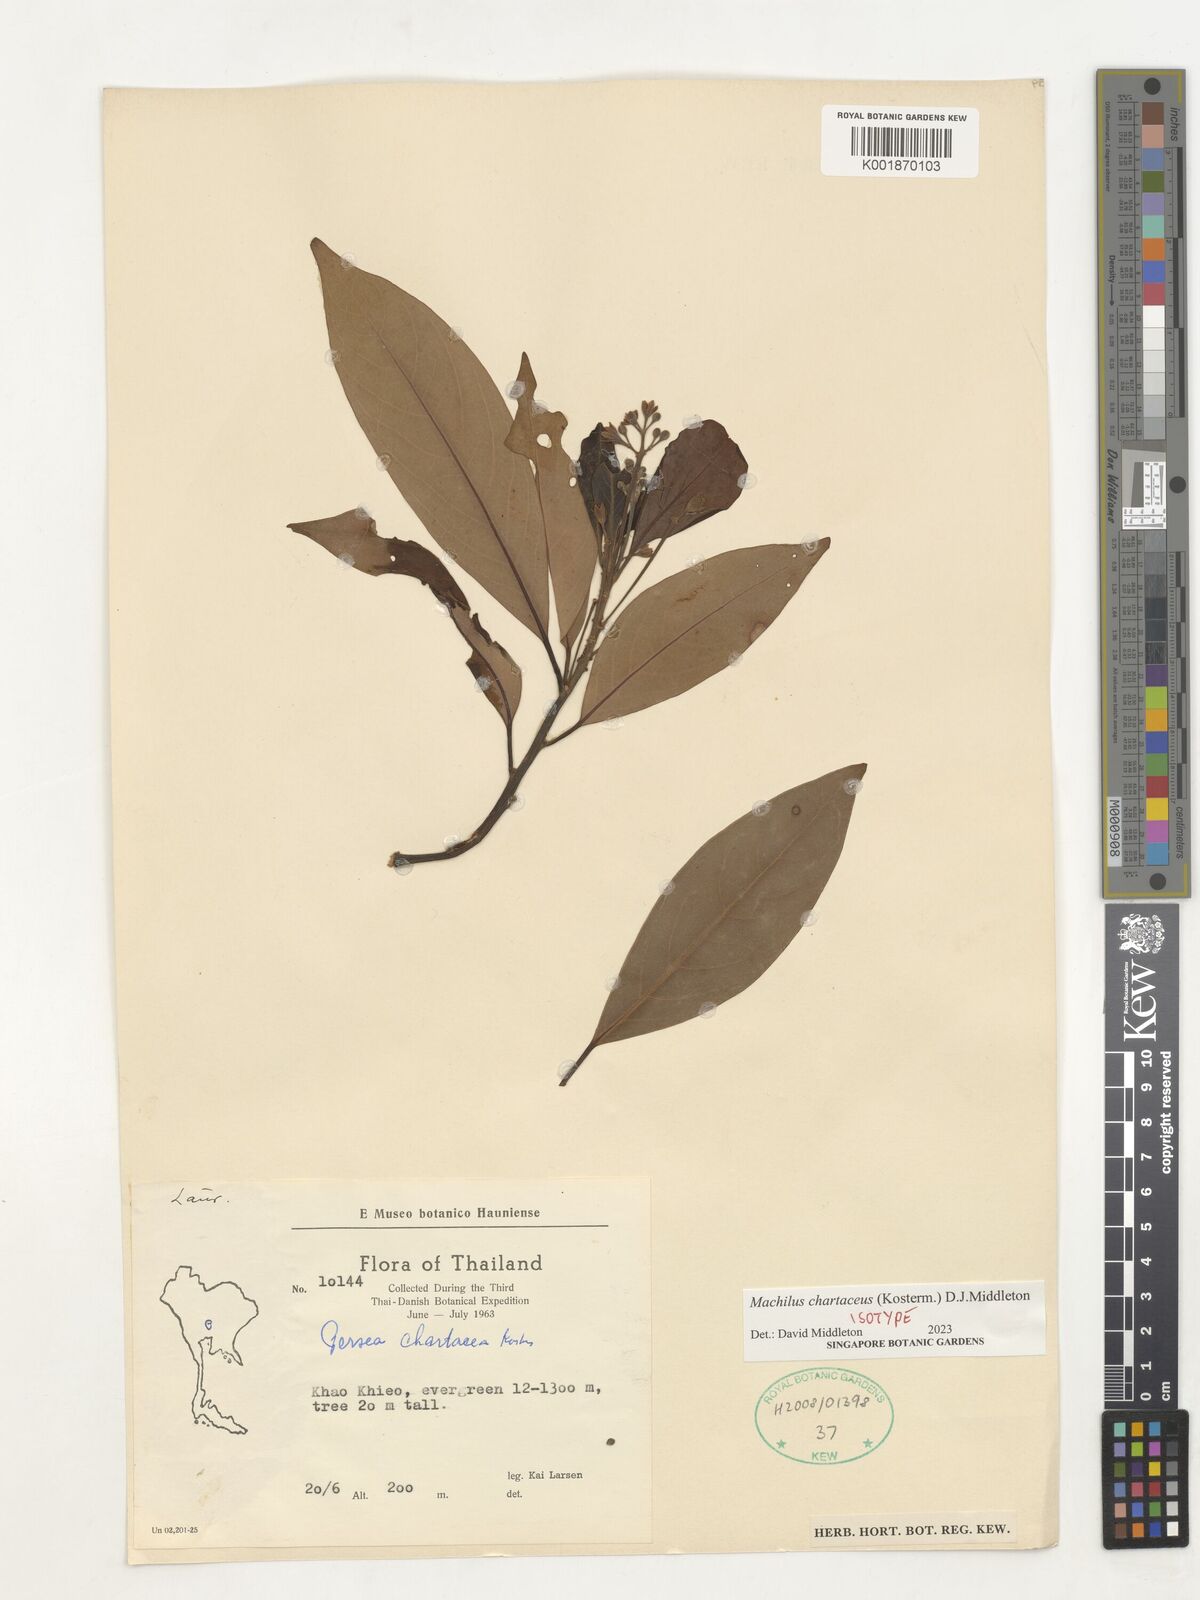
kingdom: Plantae
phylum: Tracheophyta
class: Magnoliopsida
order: Laurales
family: Lauraceae
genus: Machilus
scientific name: Machilus
